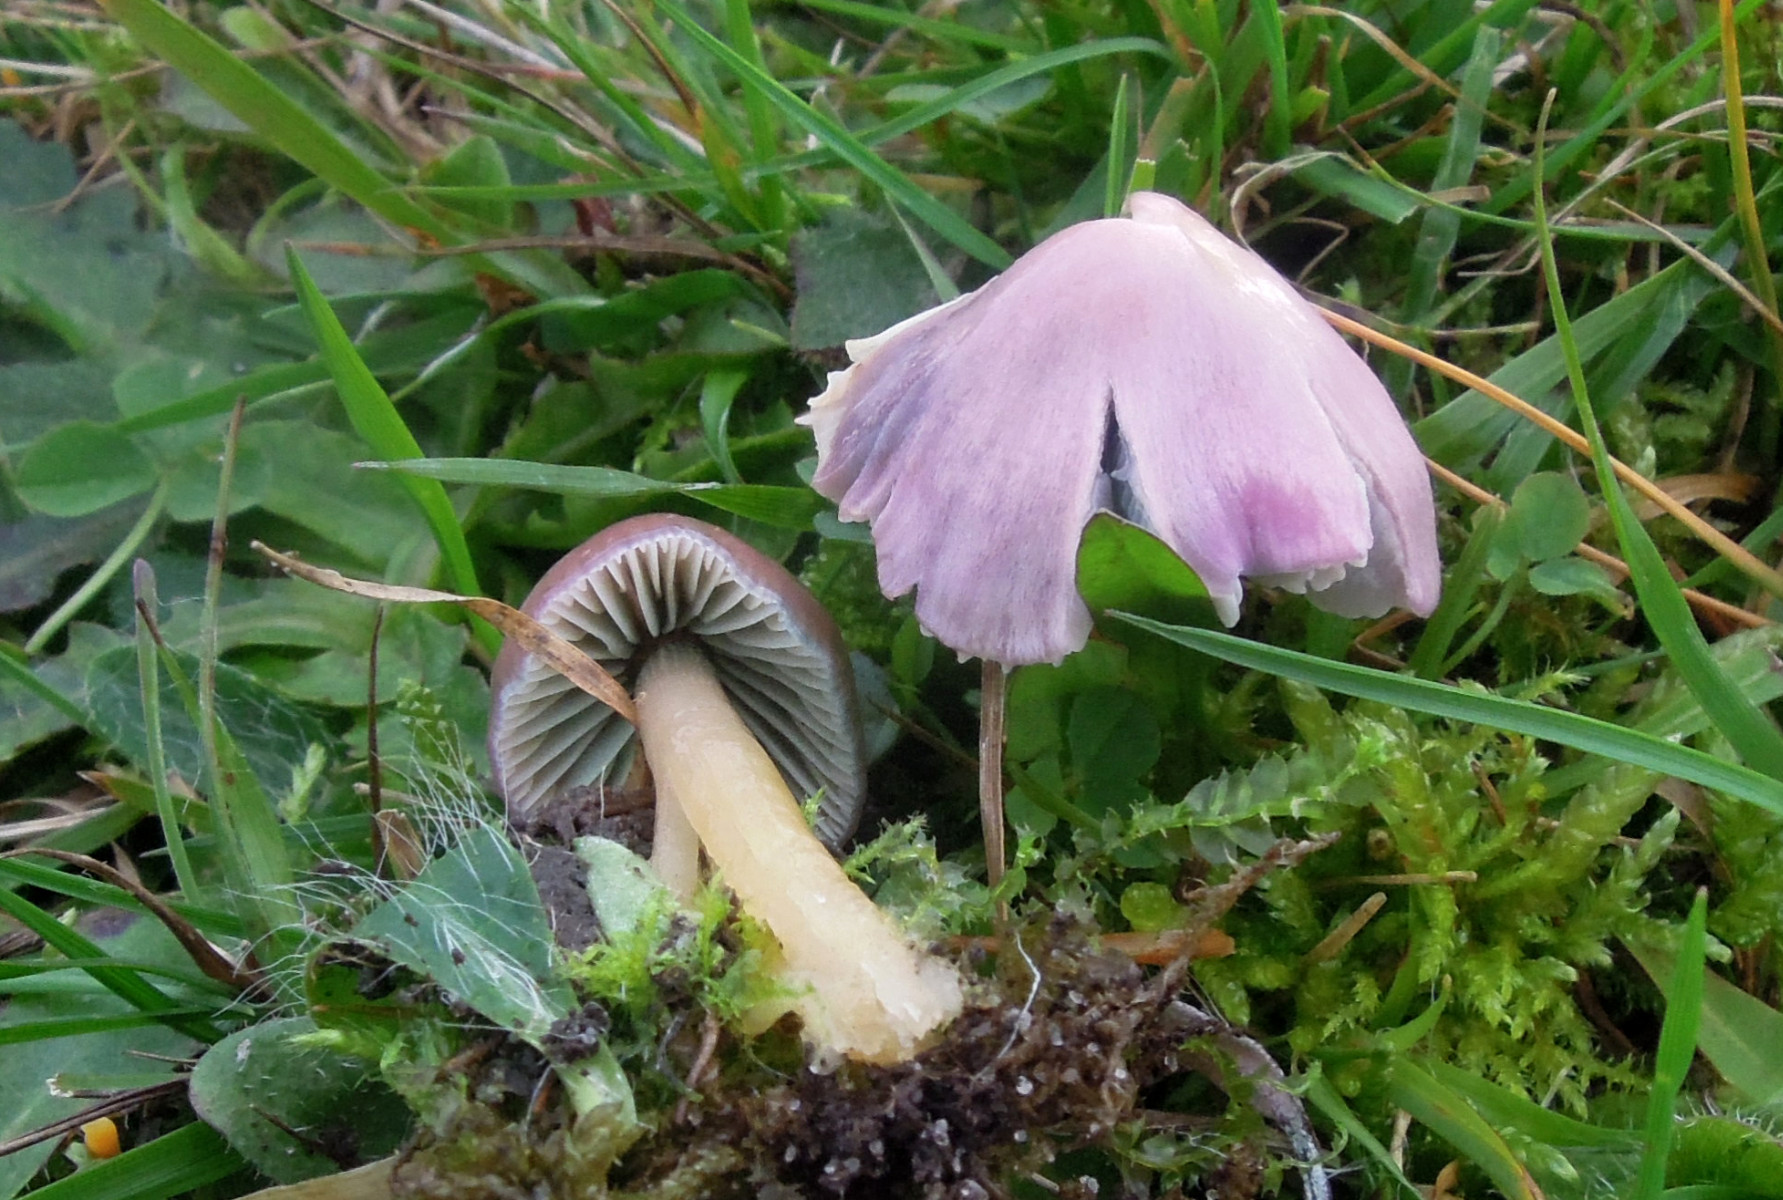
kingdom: Fungi
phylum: Basidiomycota
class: Agaricomycetes
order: Agaricales
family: Hygrophoraceae
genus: Gliophorus
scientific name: Gliophorus psittacinus
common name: papegøje-vokshat
